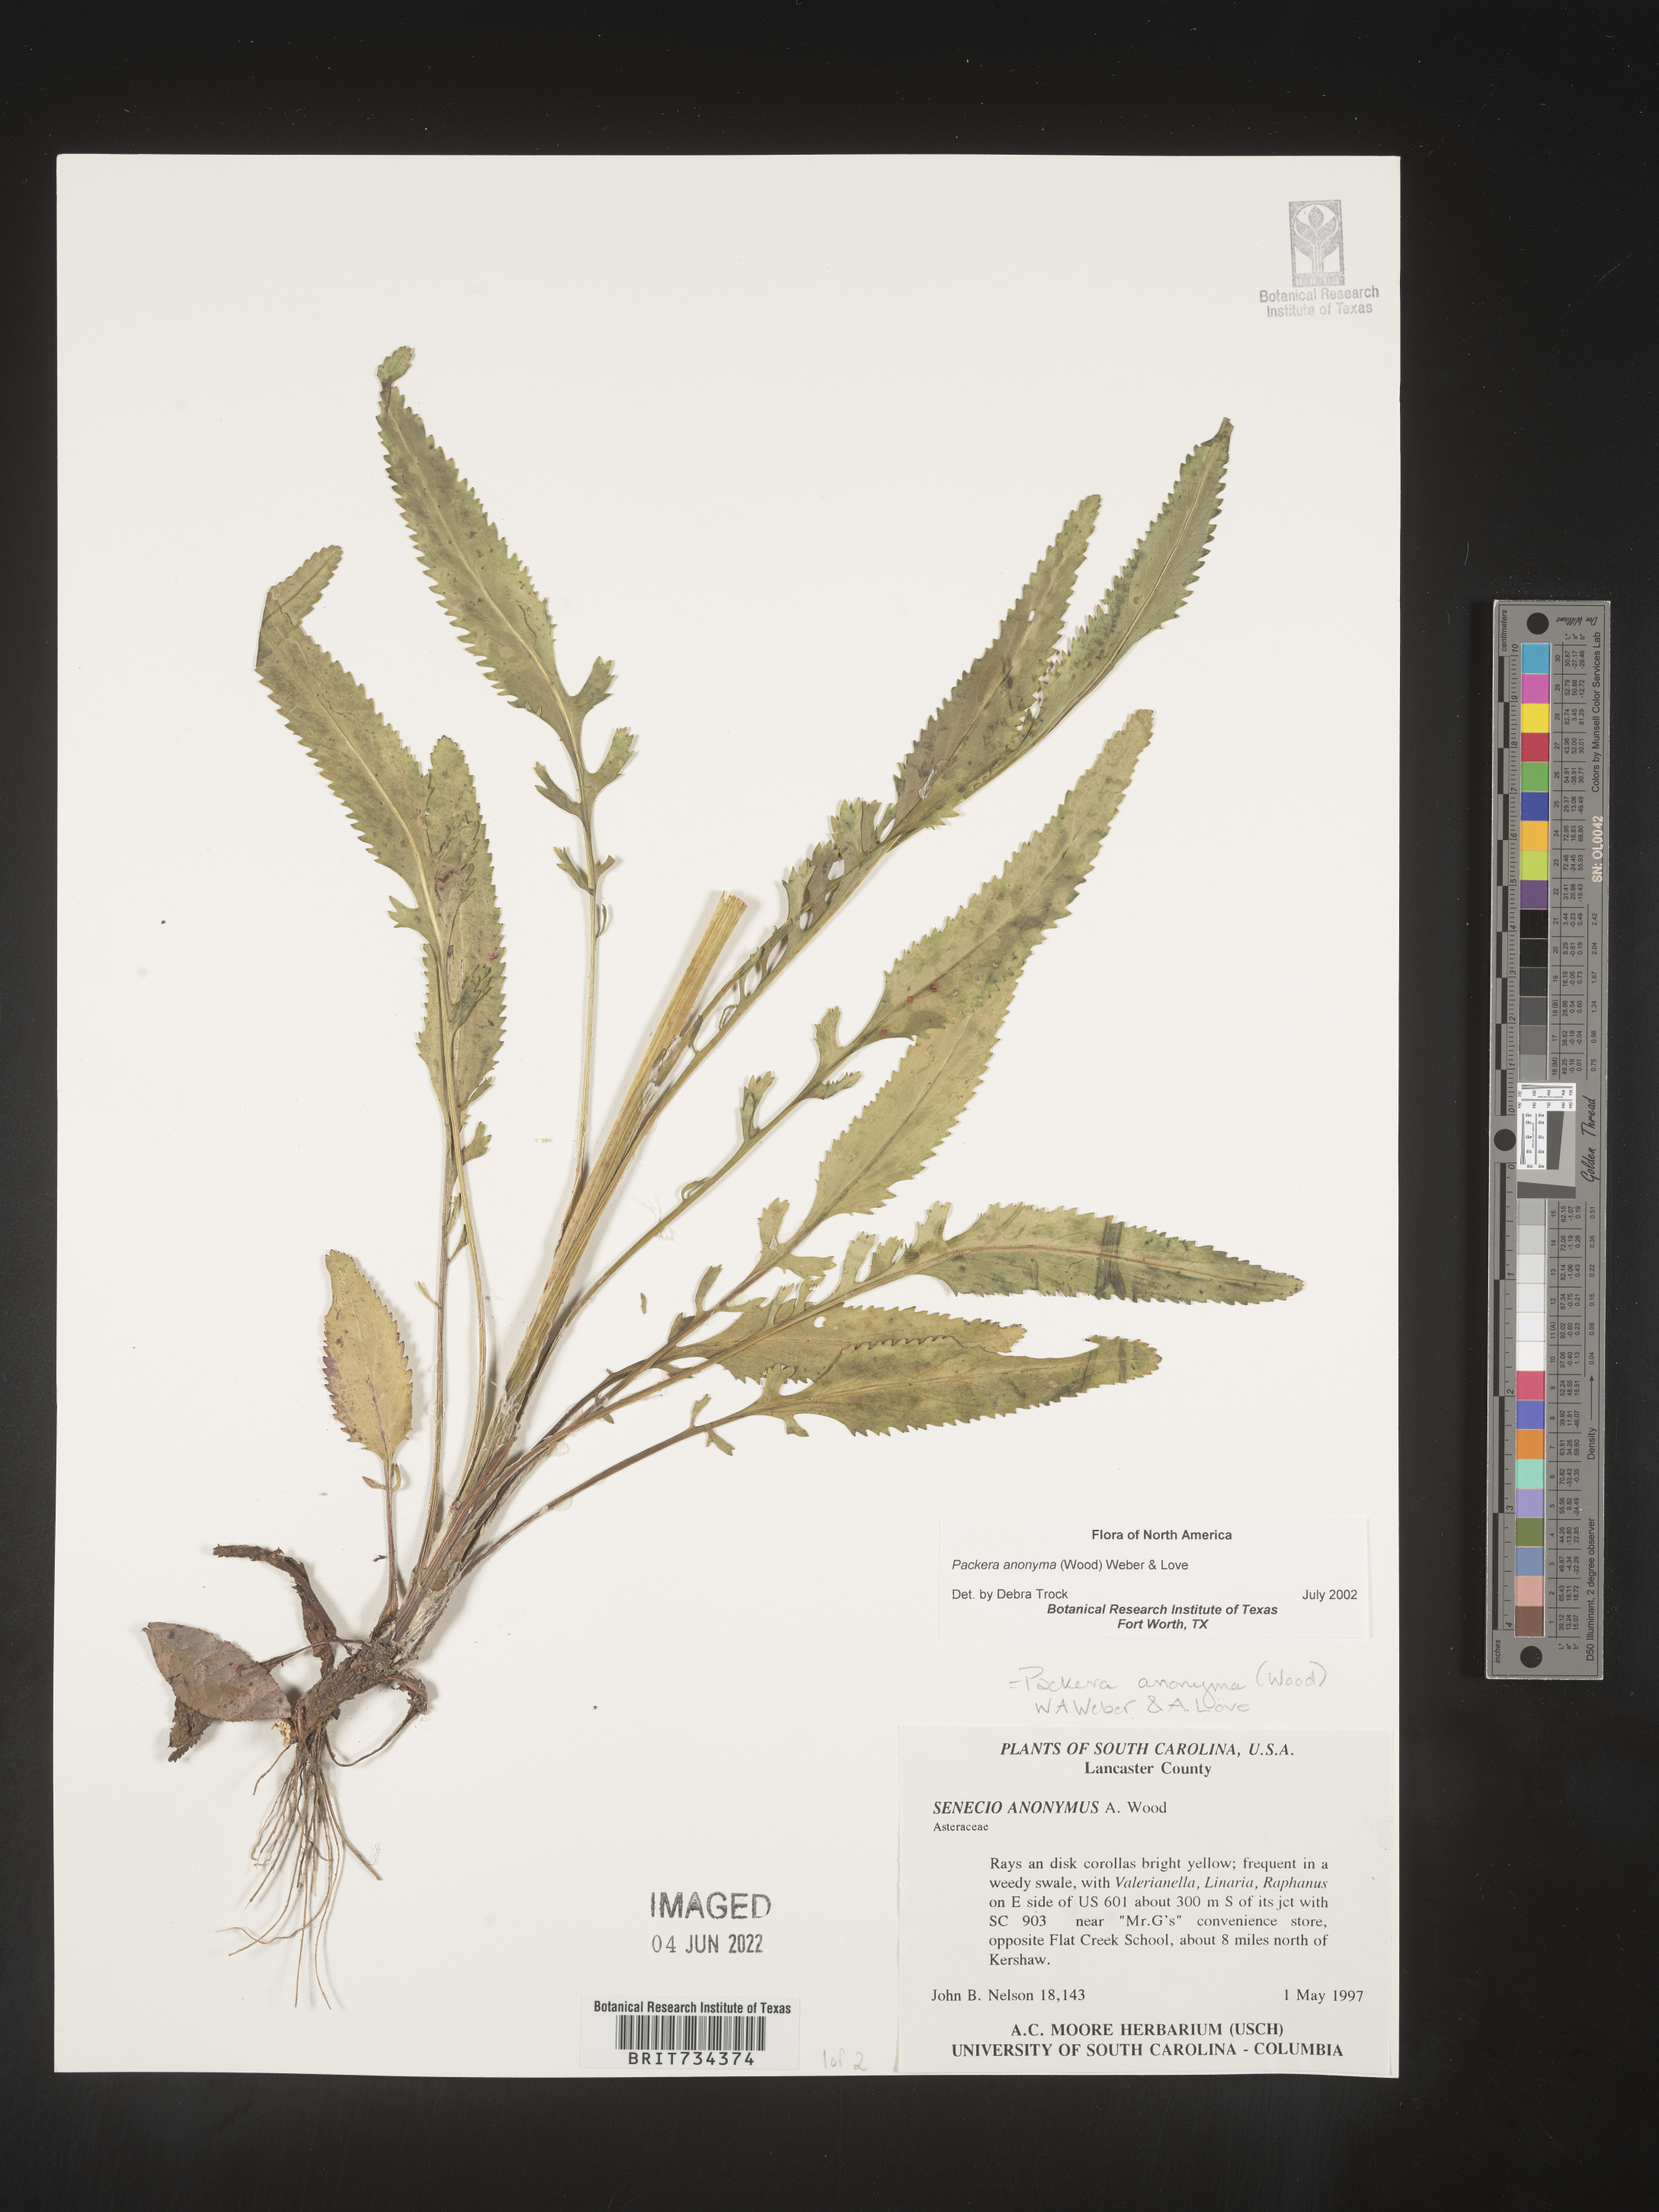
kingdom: Plantae
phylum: Tracheophyta
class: Magnoliopsida
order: Asterales
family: Asteraceae
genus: Packera
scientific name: Packera anonyma
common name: Small ragwort
